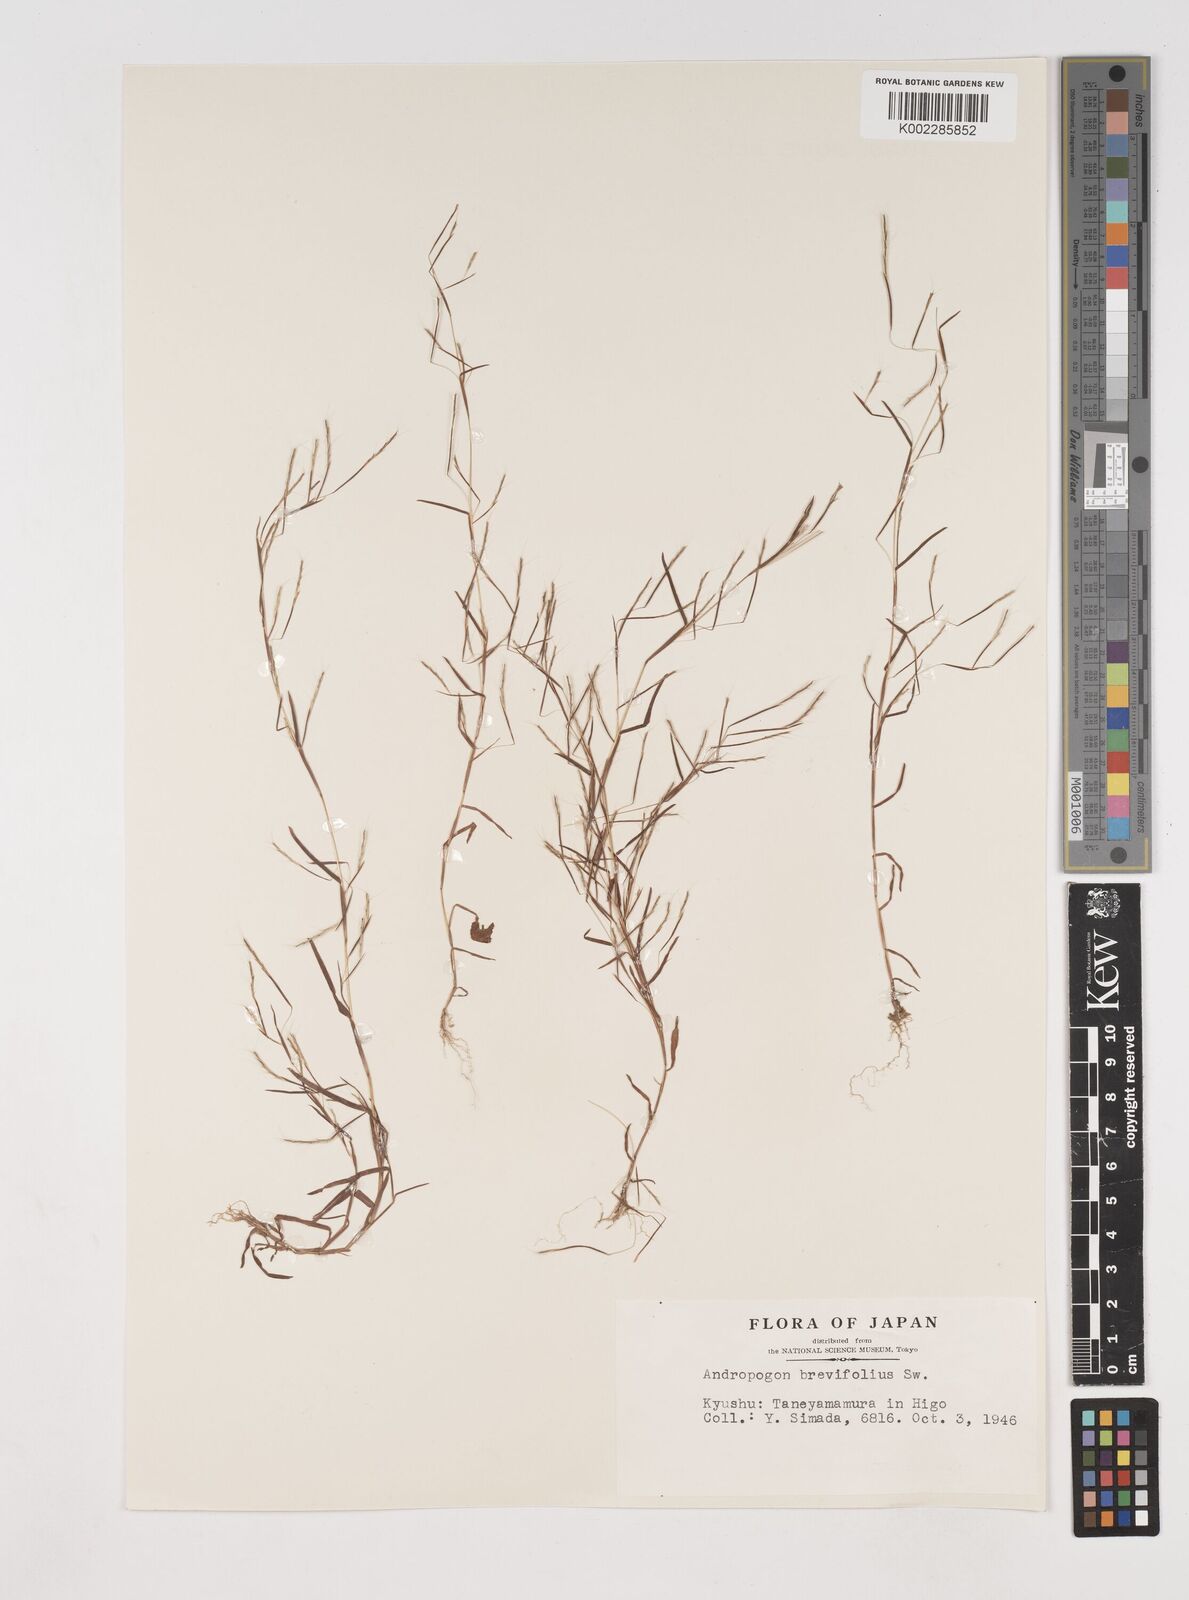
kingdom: Plantae
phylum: Tracheophyta
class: Liliopsida
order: Poales
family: Poaceae
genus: Schizachyrium
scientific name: Schizachyrium brevifolium
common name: Serillo dulce
